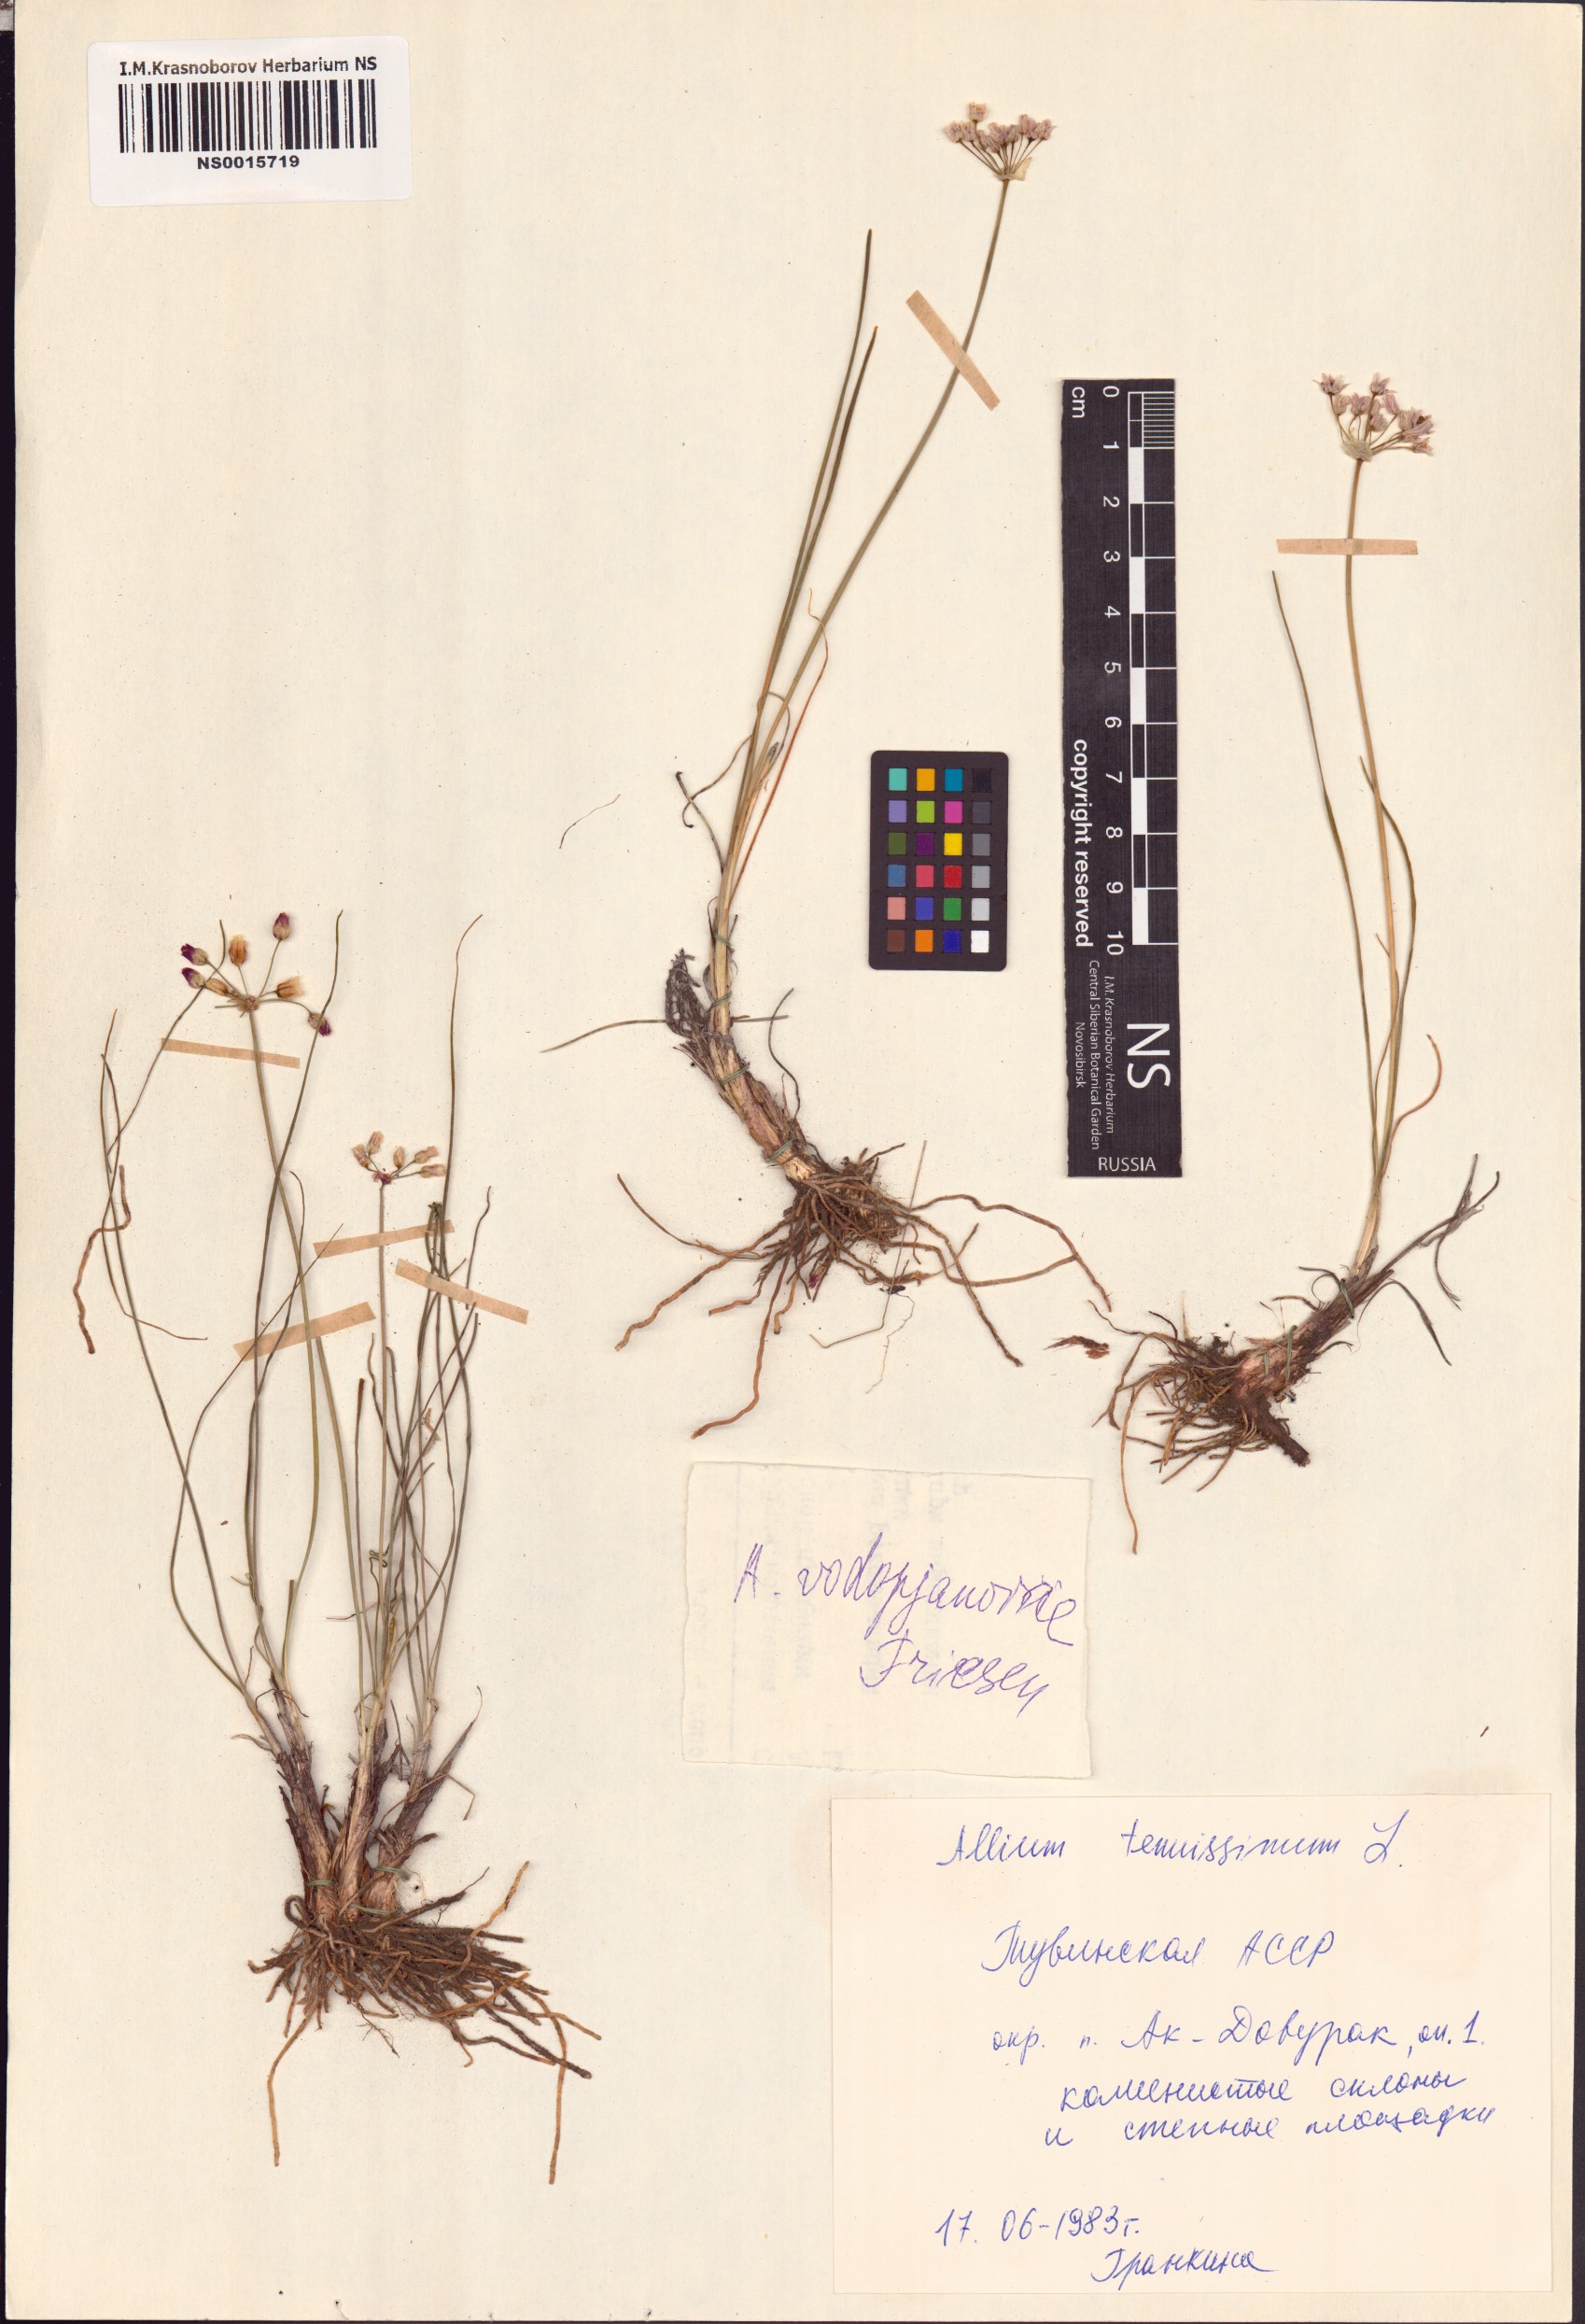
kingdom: Plantae
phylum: Tracheophyta
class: Liliopsida
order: Asparagales
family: Amaryllidaceae
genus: Allium
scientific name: Allium vodopjanovae
